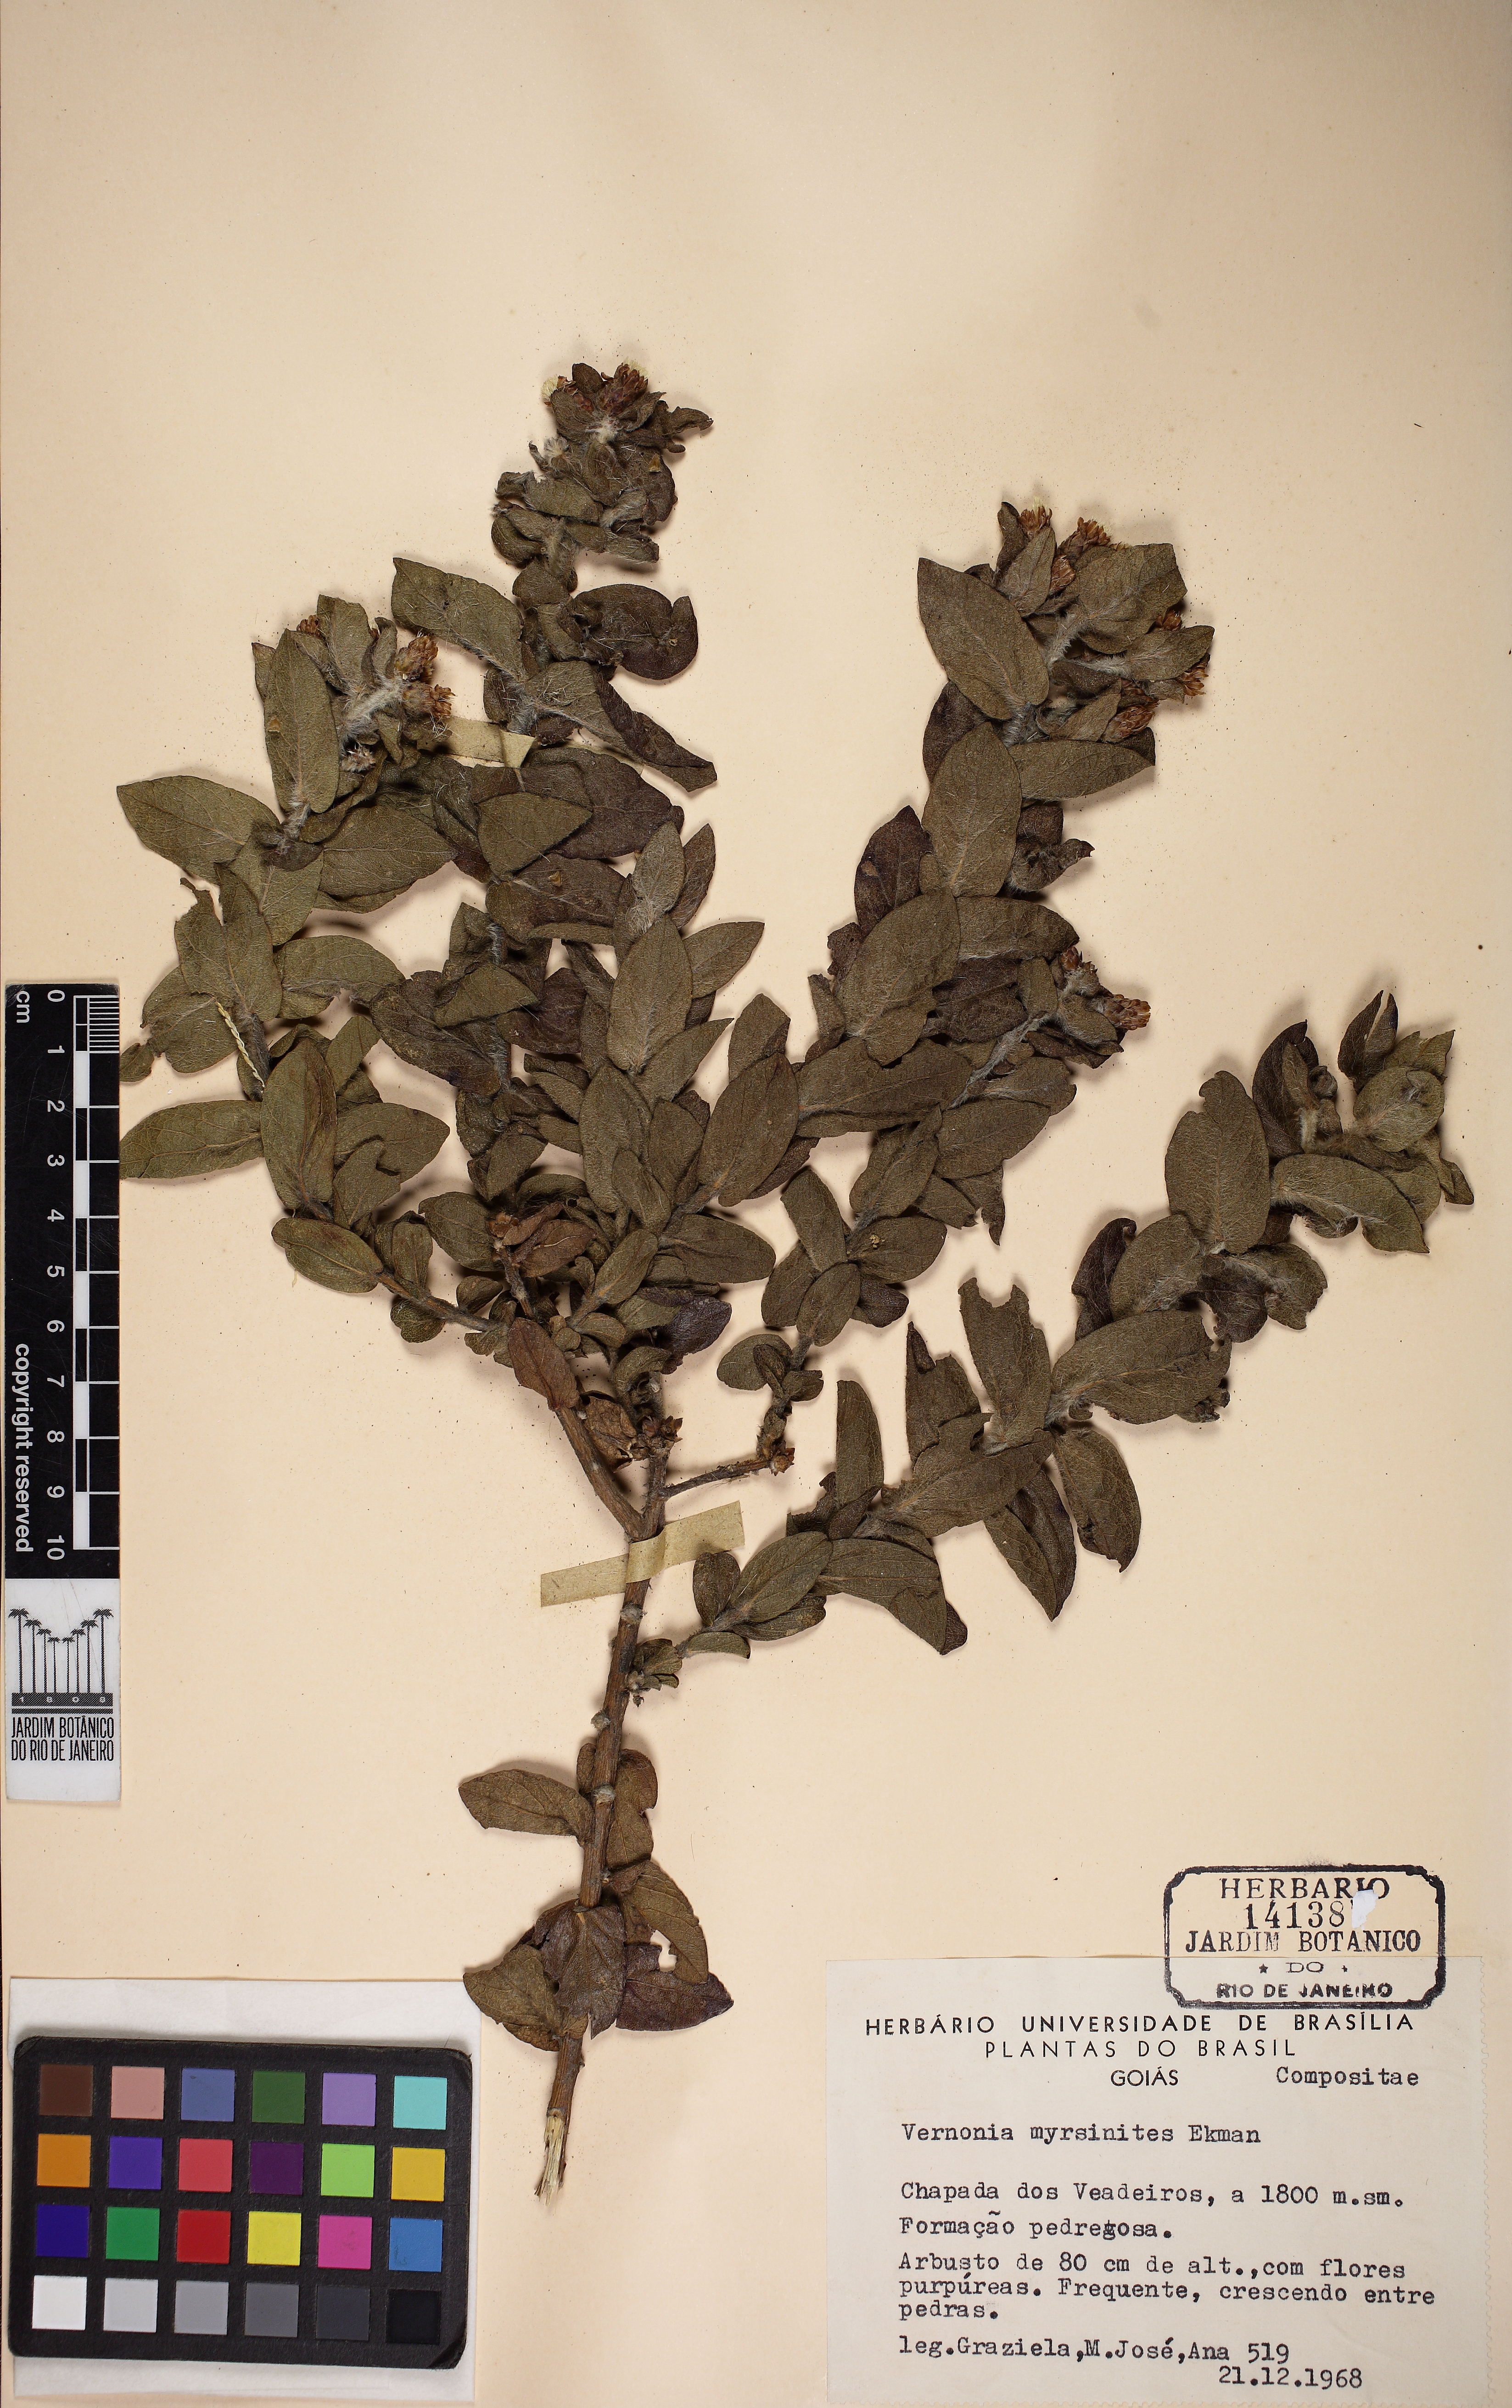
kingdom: Plantae
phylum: Tracheophyta
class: Magnoliopsida
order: Asterales
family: Asteraceae
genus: Lessingianthus
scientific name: Lessingianthus myrsinites
